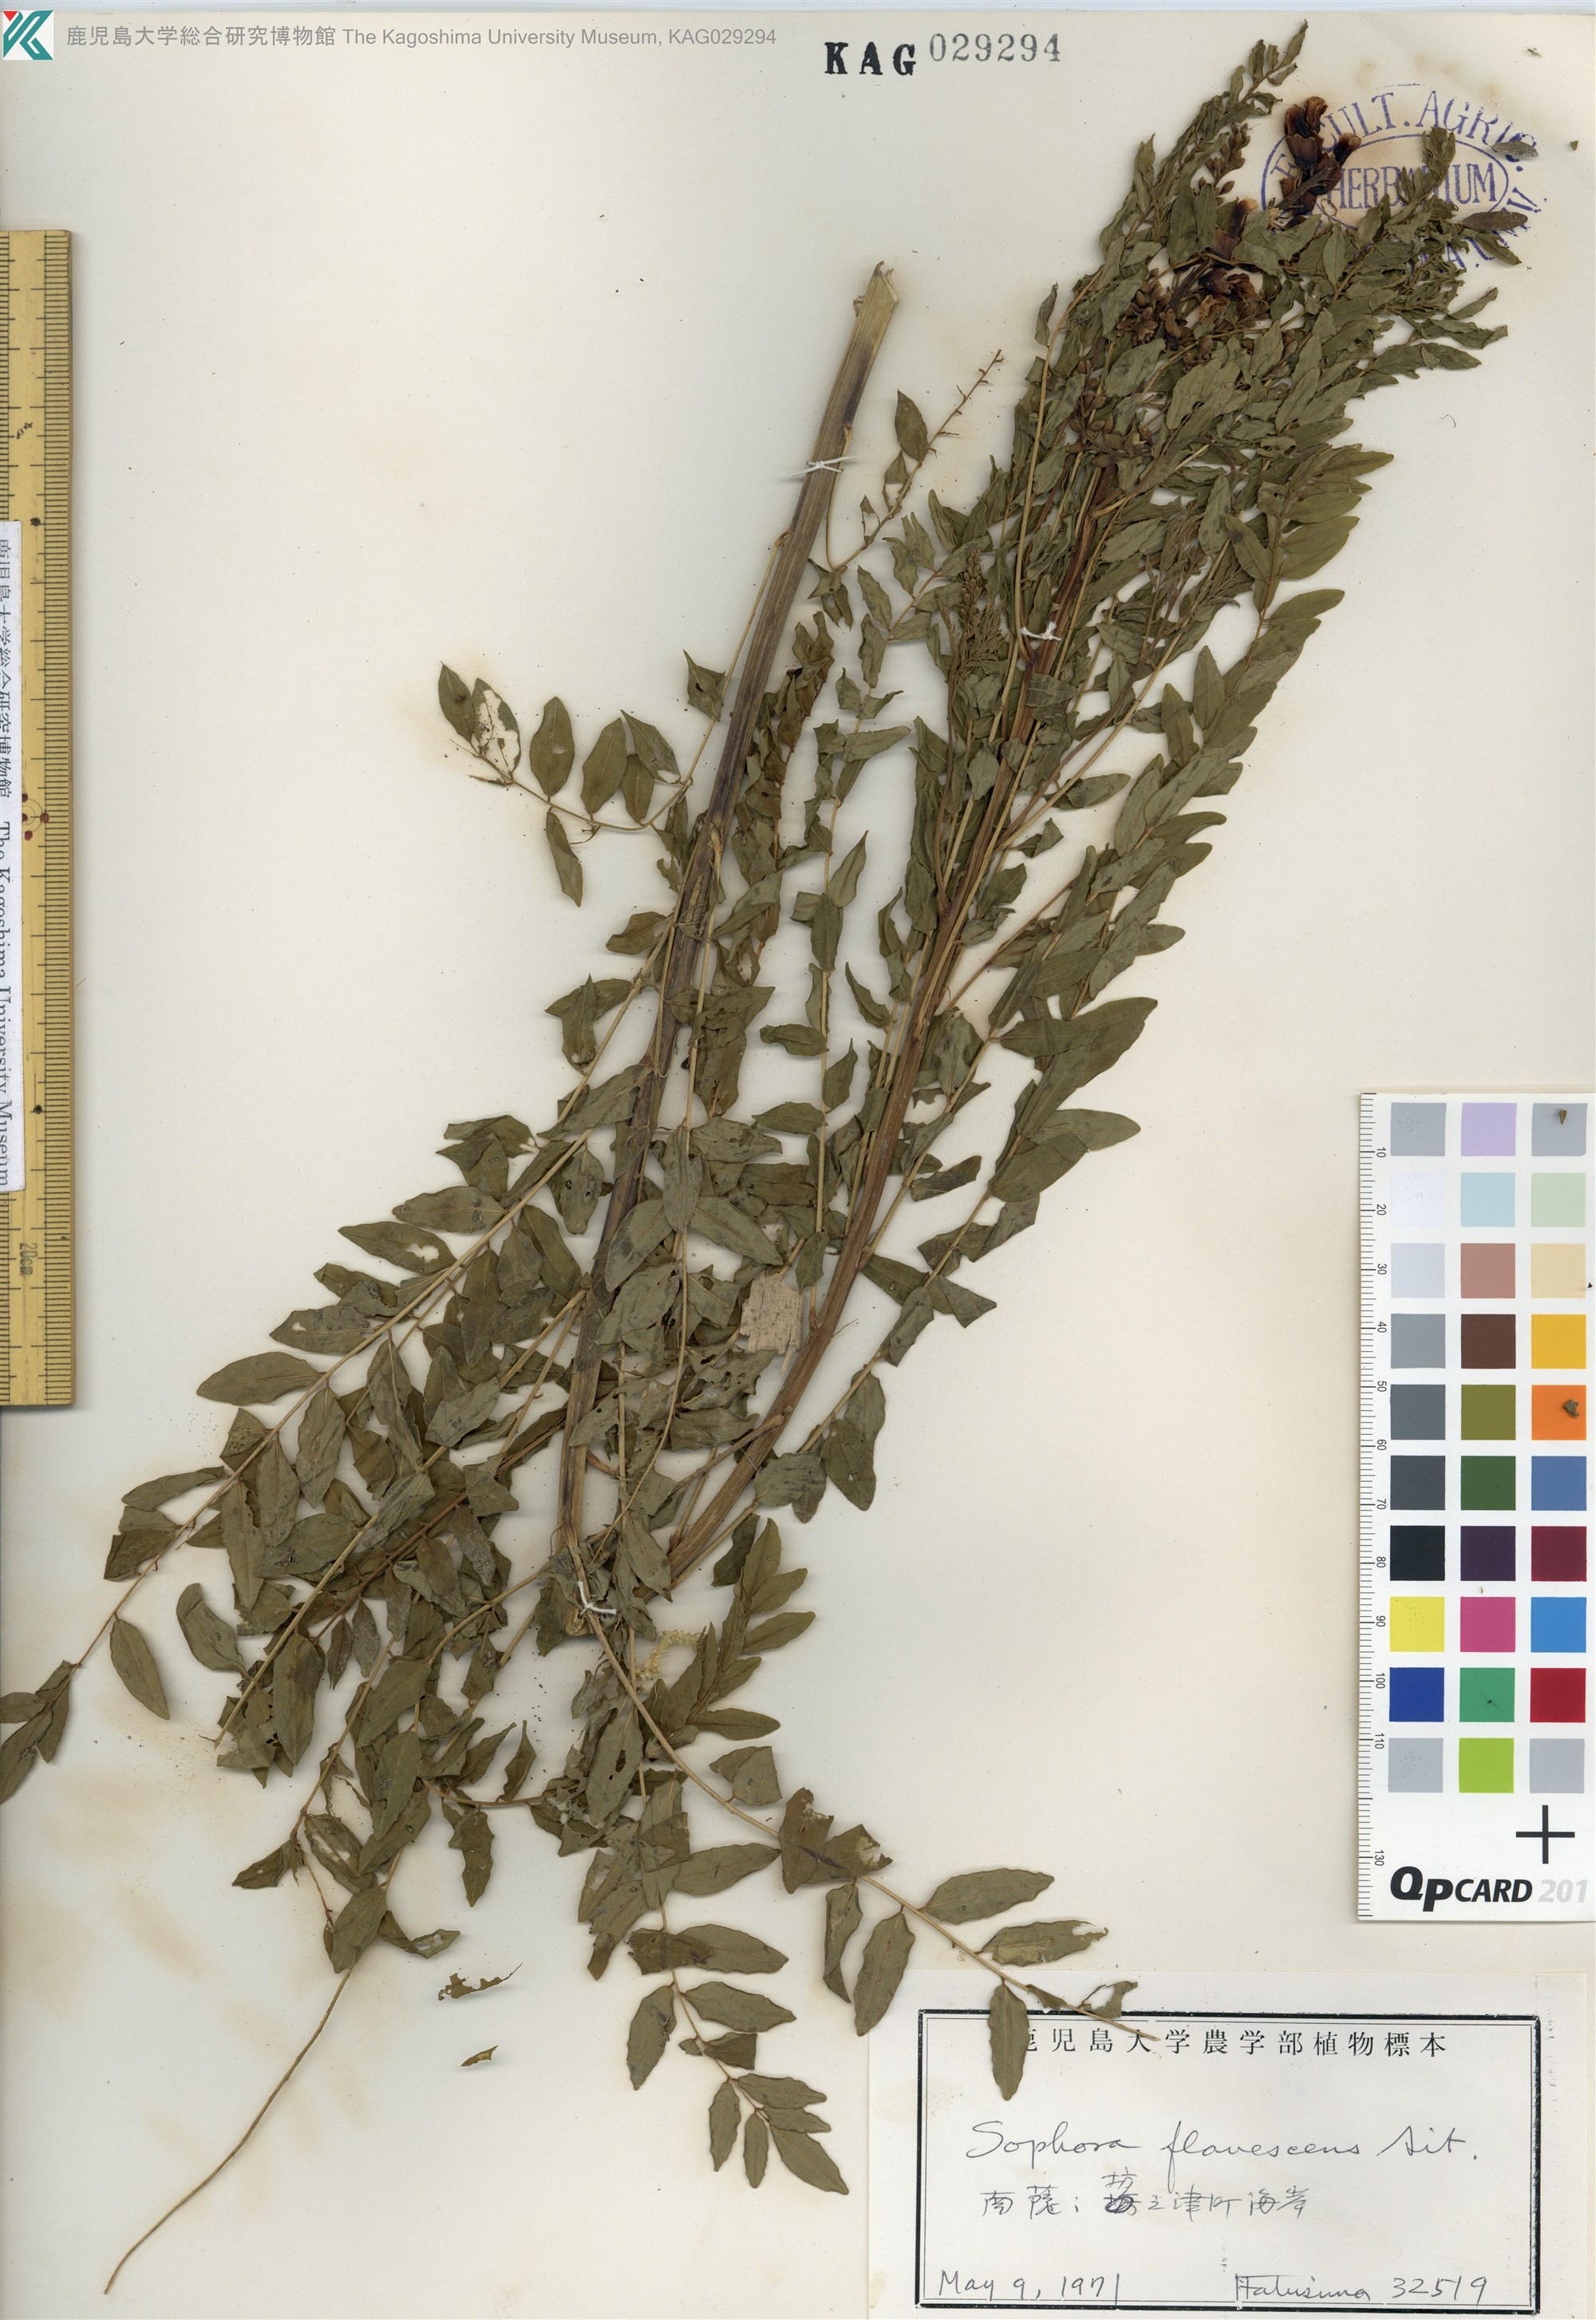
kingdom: Plantae
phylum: Tracheophyta
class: Magnoliopsida
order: Fabales
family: Fabaceae
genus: Sophora
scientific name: Sophora flavescens
